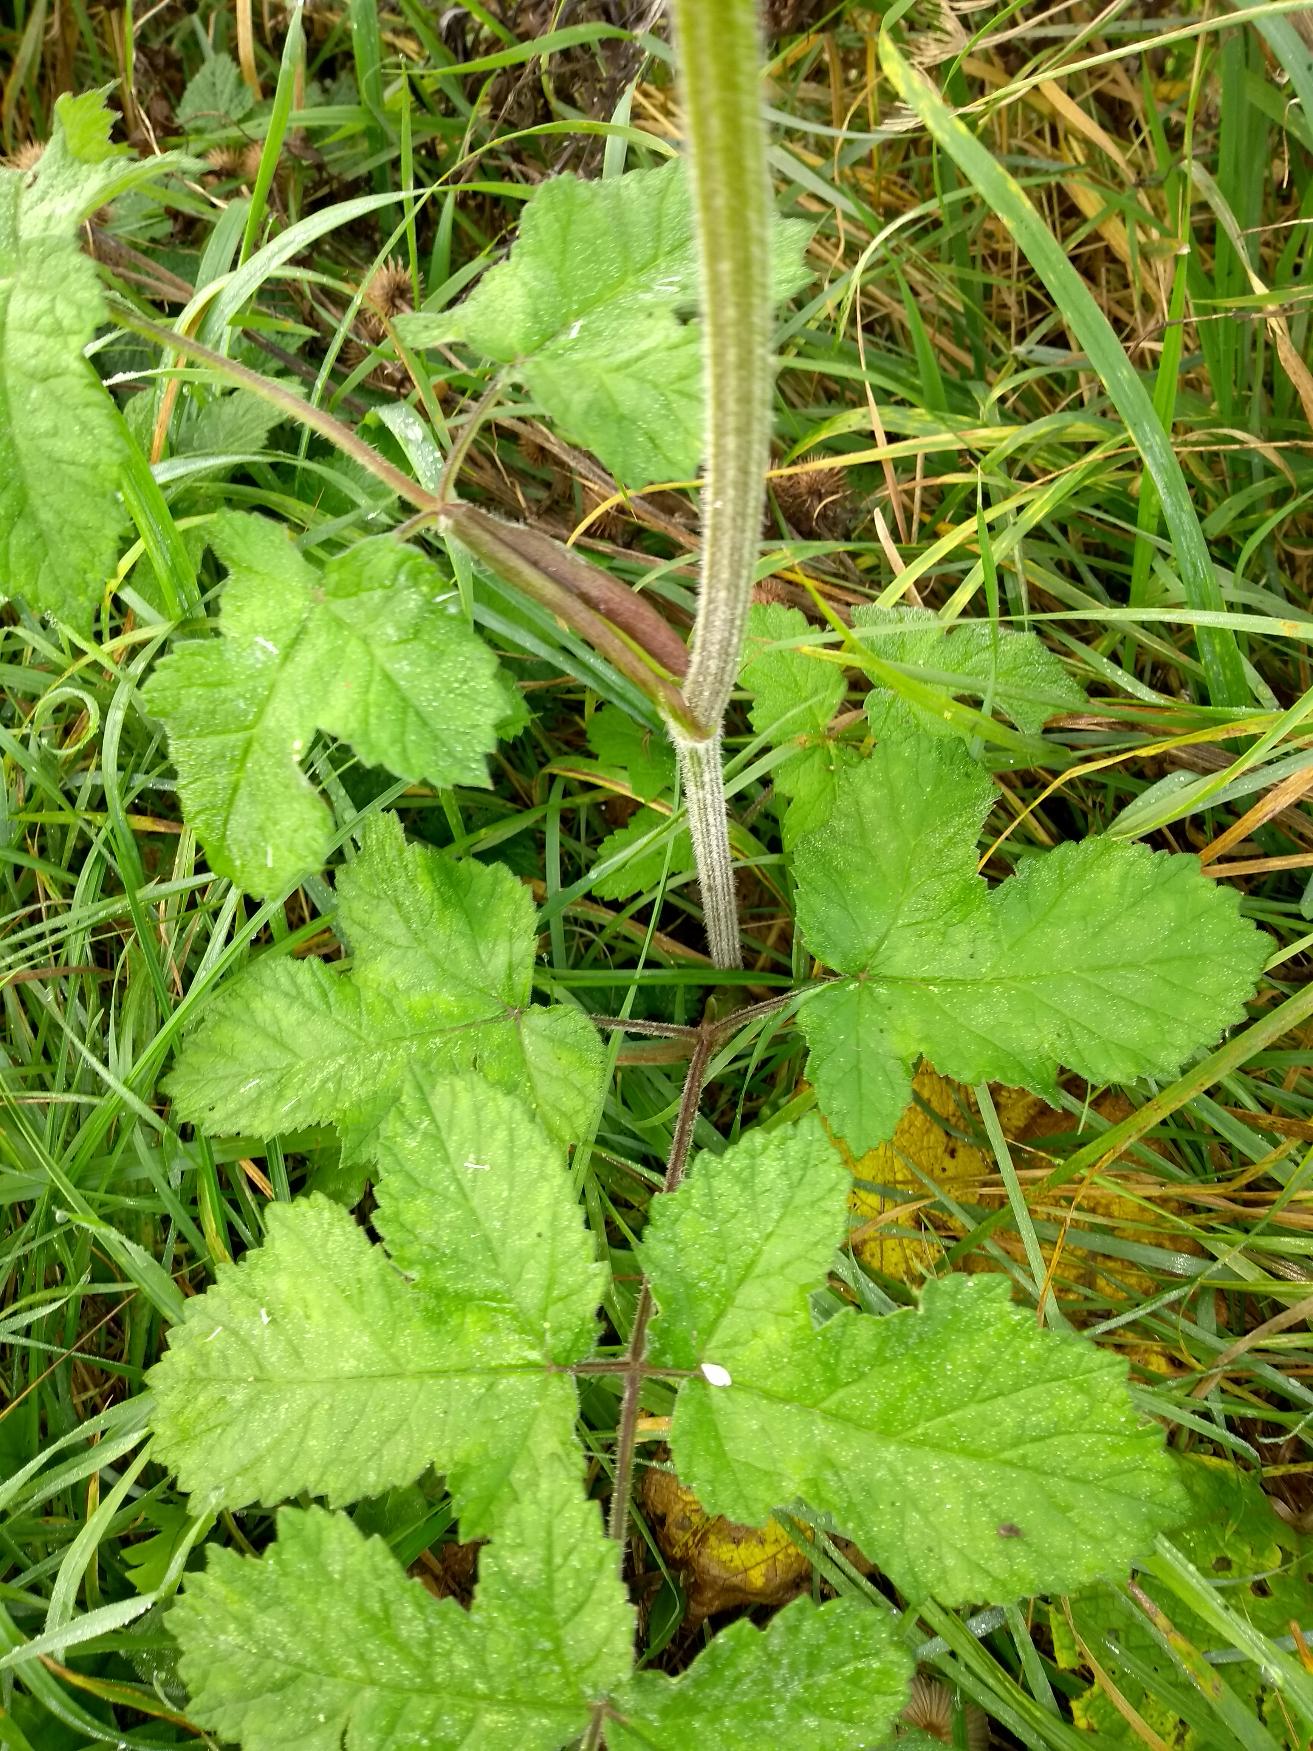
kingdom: Plantae
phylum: Tracheophyta
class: Magnoliopsida
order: Apiales
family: Apiaceae
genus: Heracleum
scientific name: Heracleum sphondylium
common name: Almindelig bjørneklo
